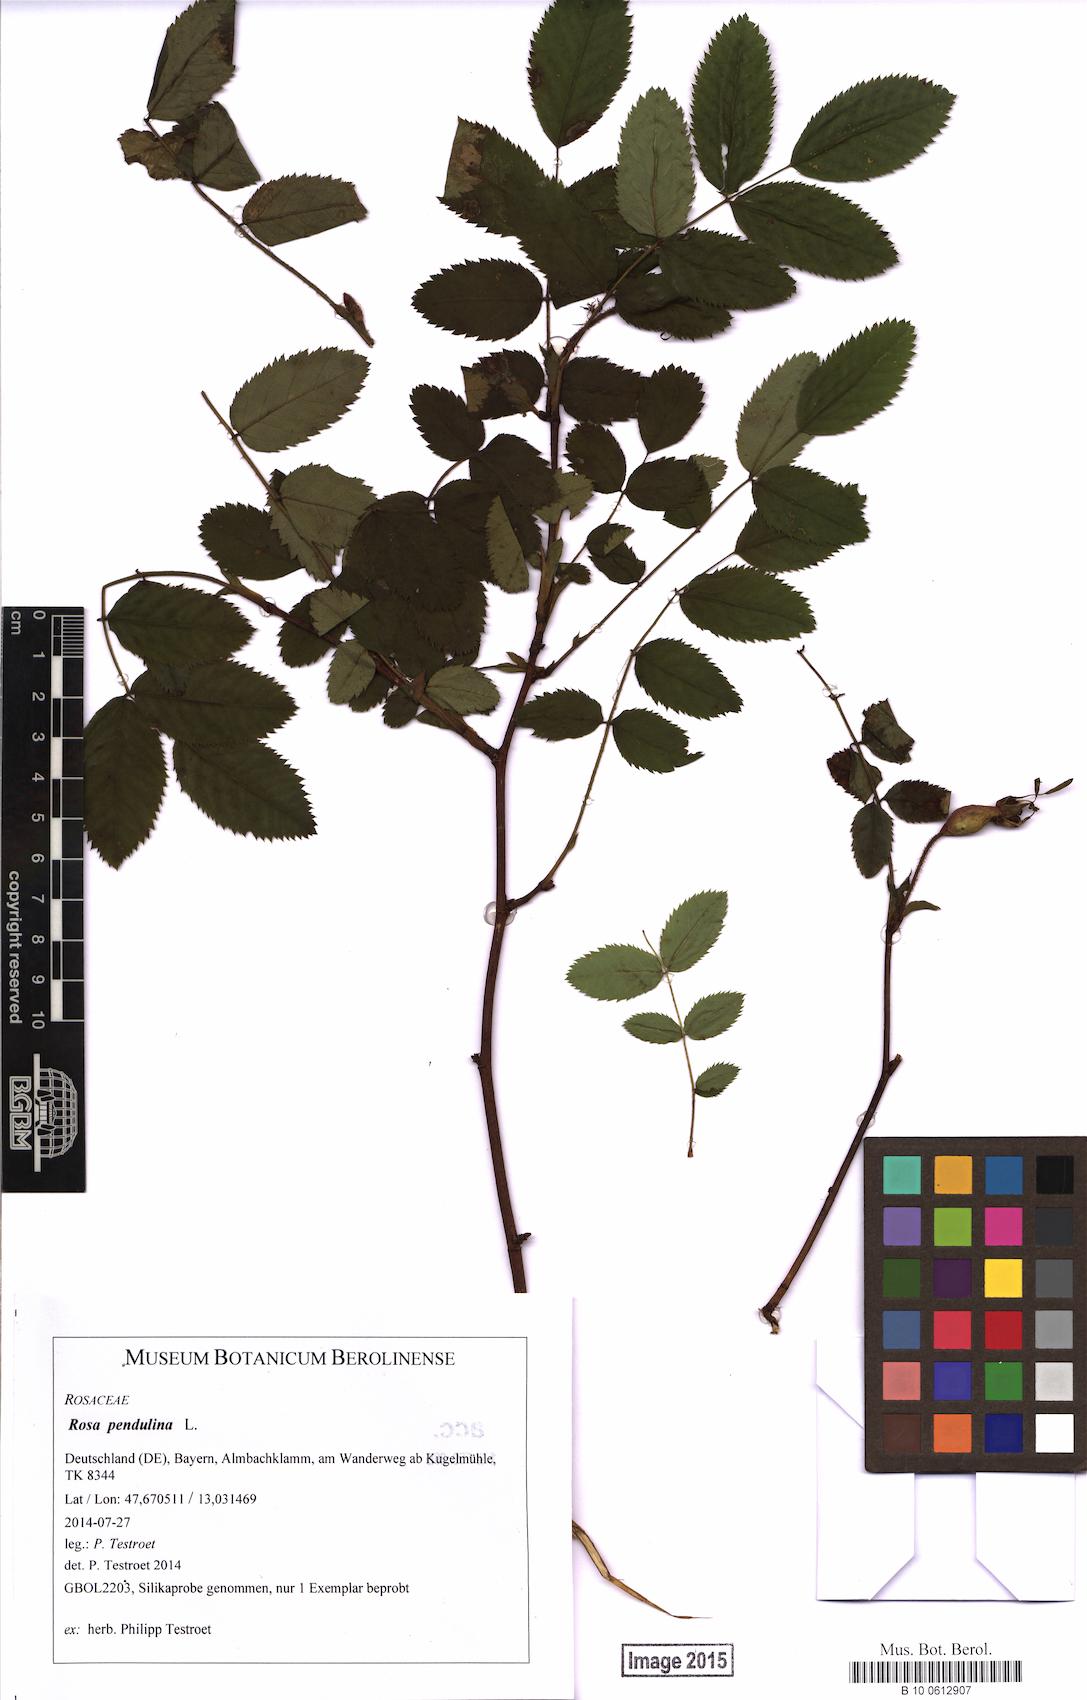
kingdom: Plantae
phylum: Tracheophyta
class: Magnoliopsida
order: Rosales
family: Rosaceae
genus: Rosa
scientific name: Rosa pendulina
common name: Alpine rose
